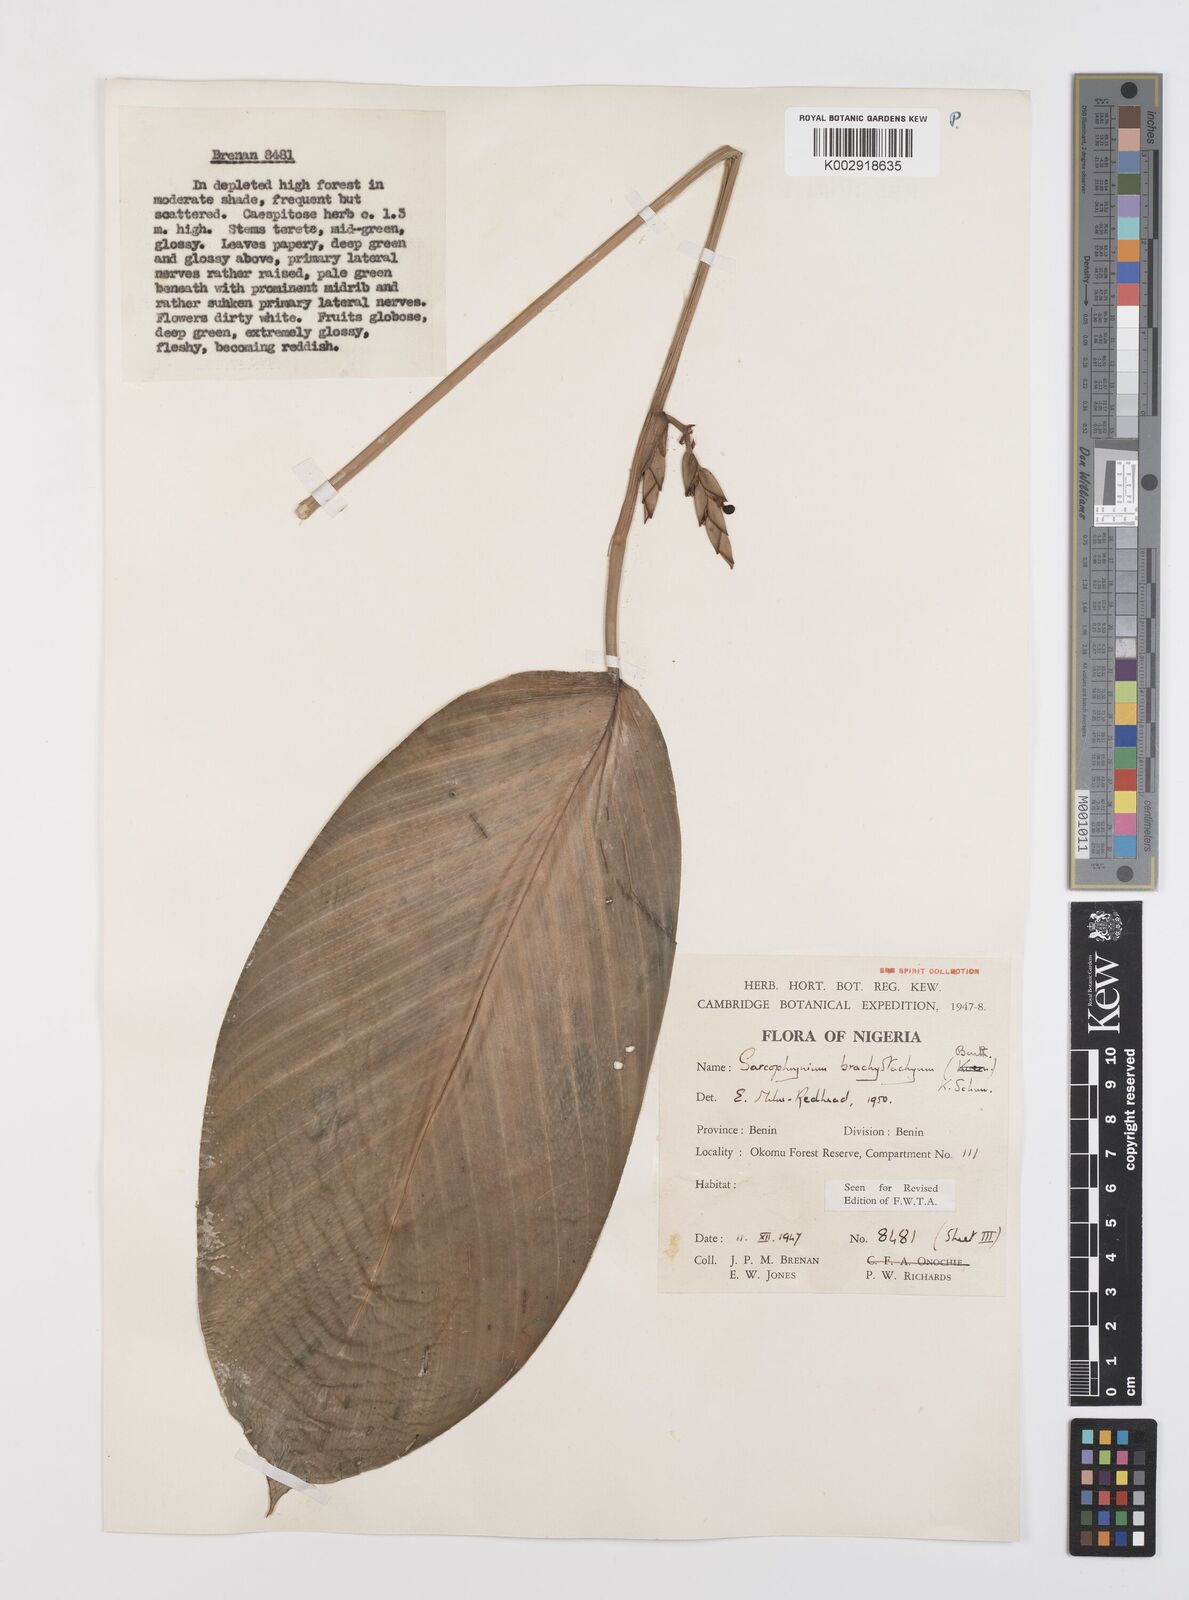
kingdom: Plantae
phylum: Tracheophyta
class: Liliopsida
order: Zingiberales
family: Marantaceae
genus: Sarcophrynium
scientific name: Sarcophrynium brachystachyum
